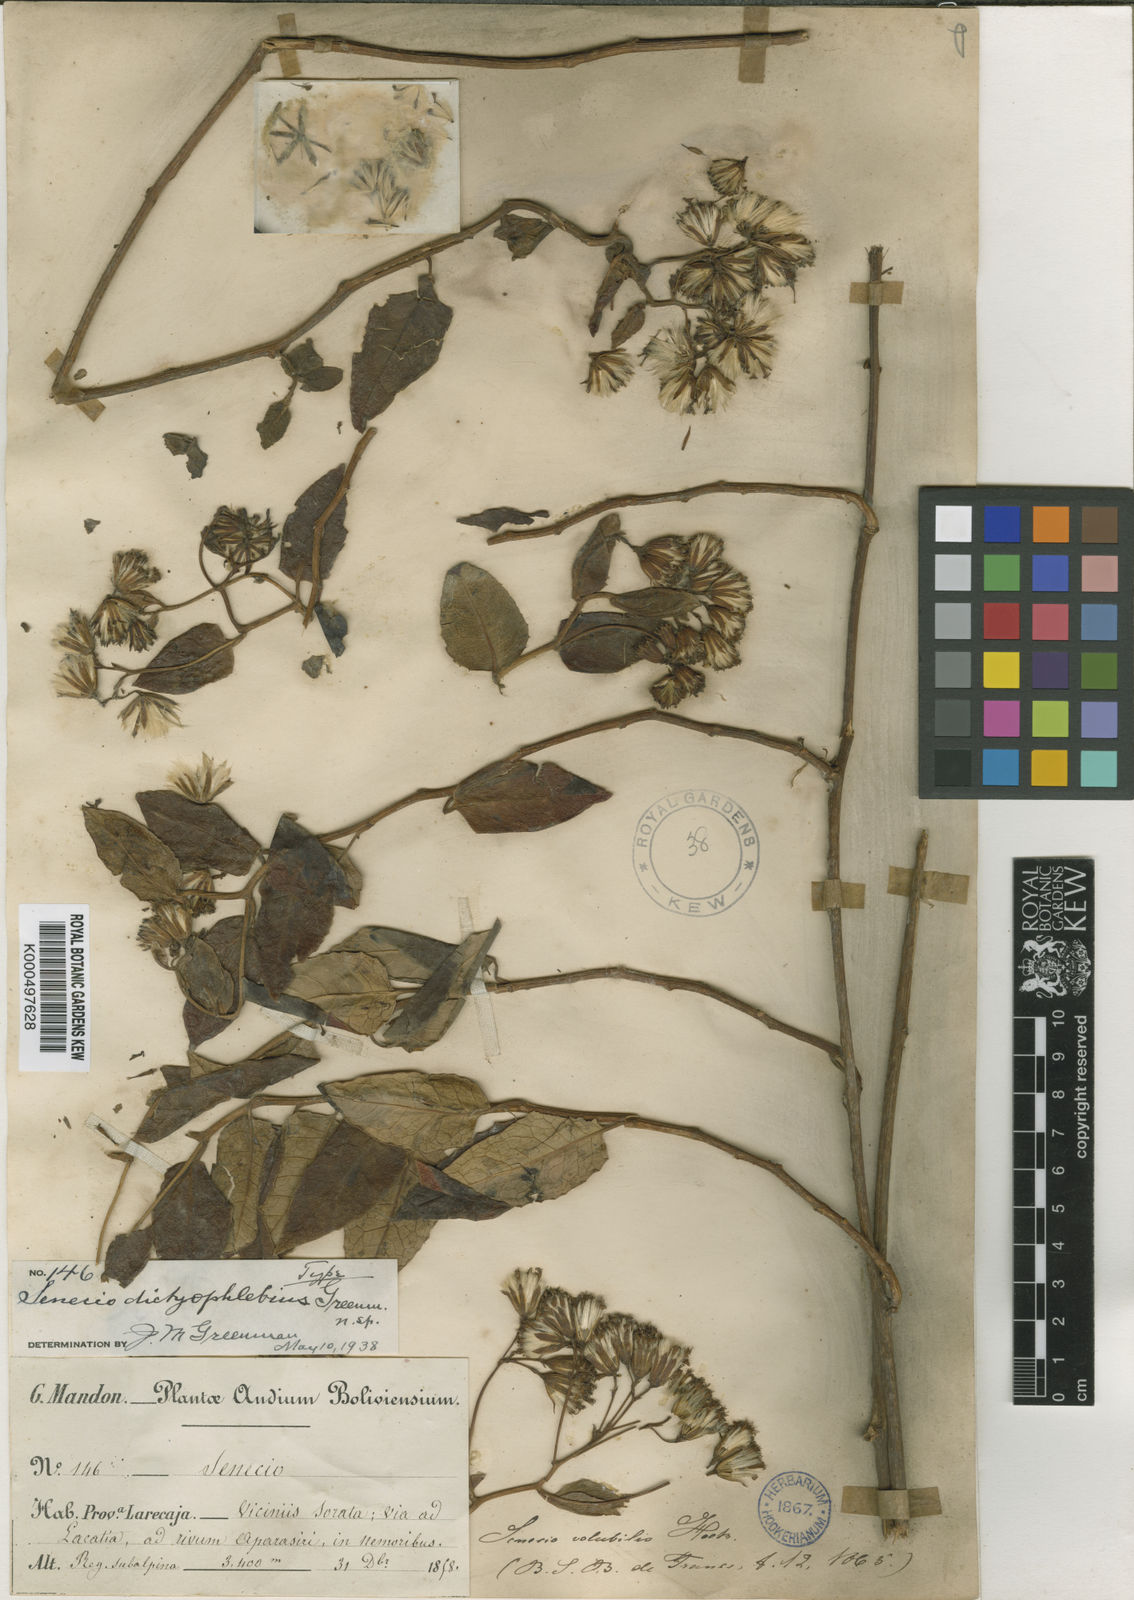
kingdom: Plantae
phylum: Tracheophyta
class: Magnoliopsida
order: Asterales
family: Asteraceae
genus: Pentacalia
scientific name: Pentacalia dictyophlebia
